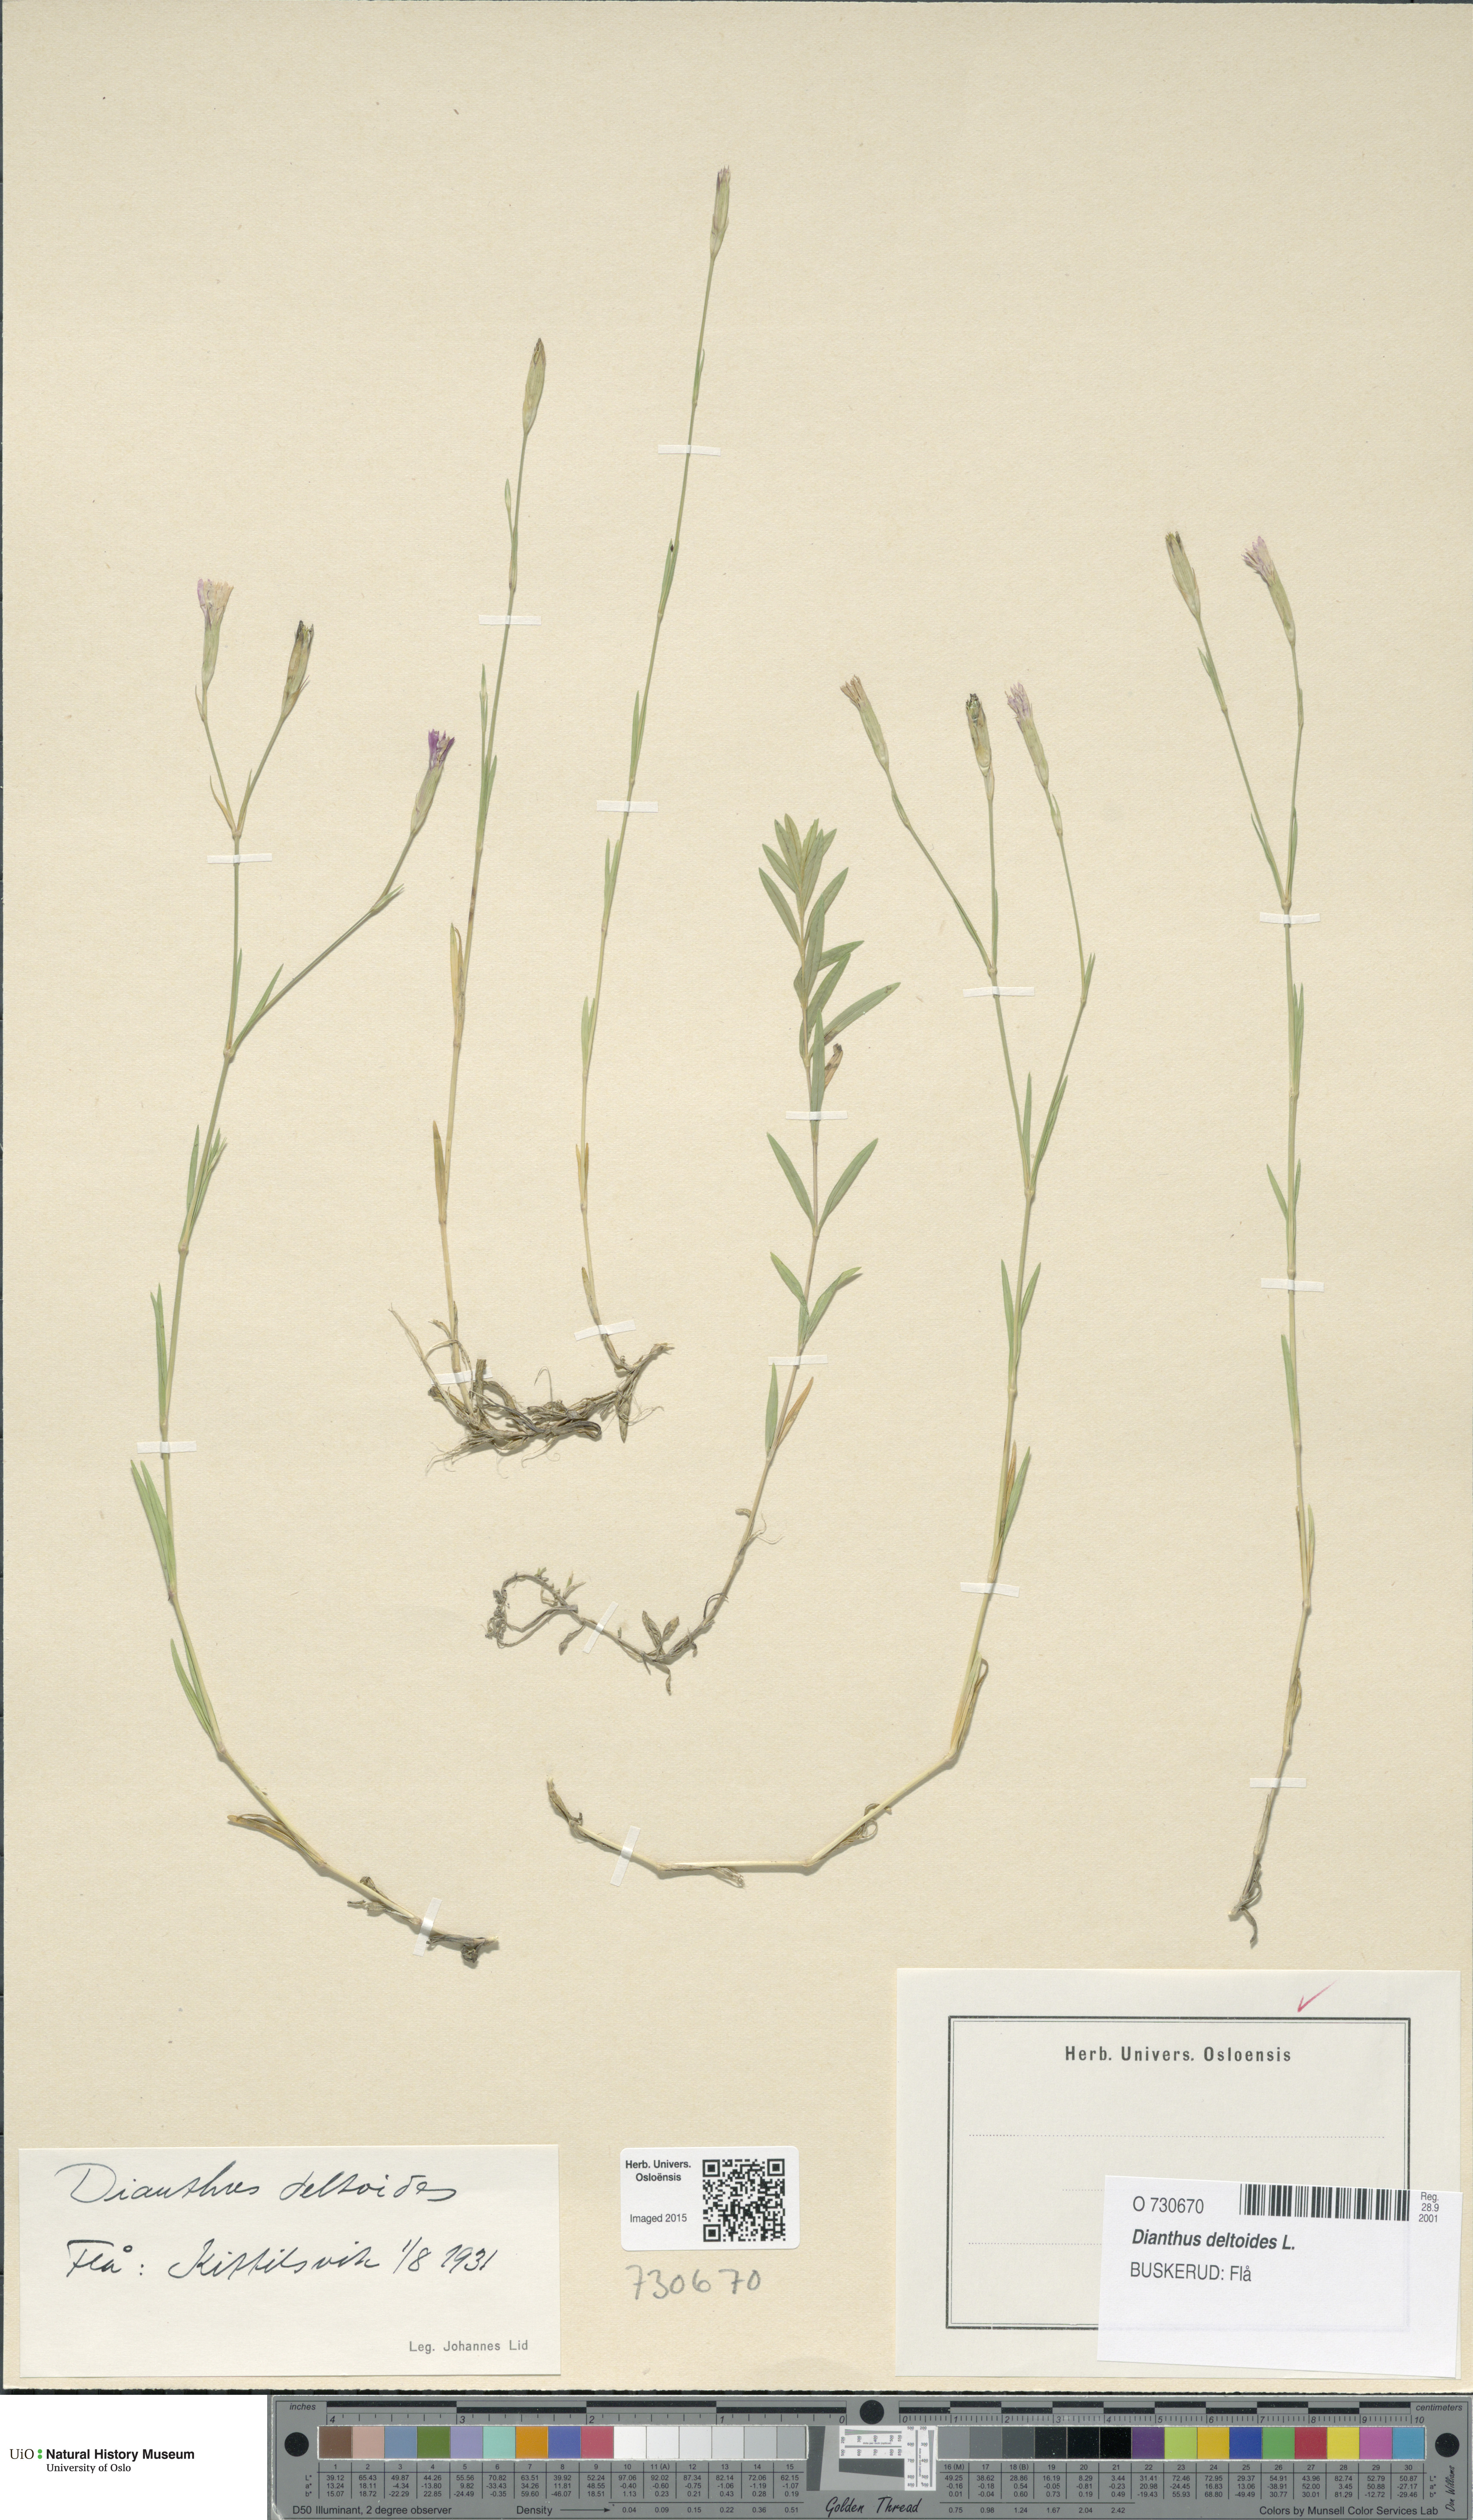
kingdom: Plantae
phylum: Tracheophyta
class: Magnoliopsida
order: Caryophyllales
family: Caryophyllaceae
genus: Dianthus
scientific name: Dianthus deltoides
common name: Maiden pink
